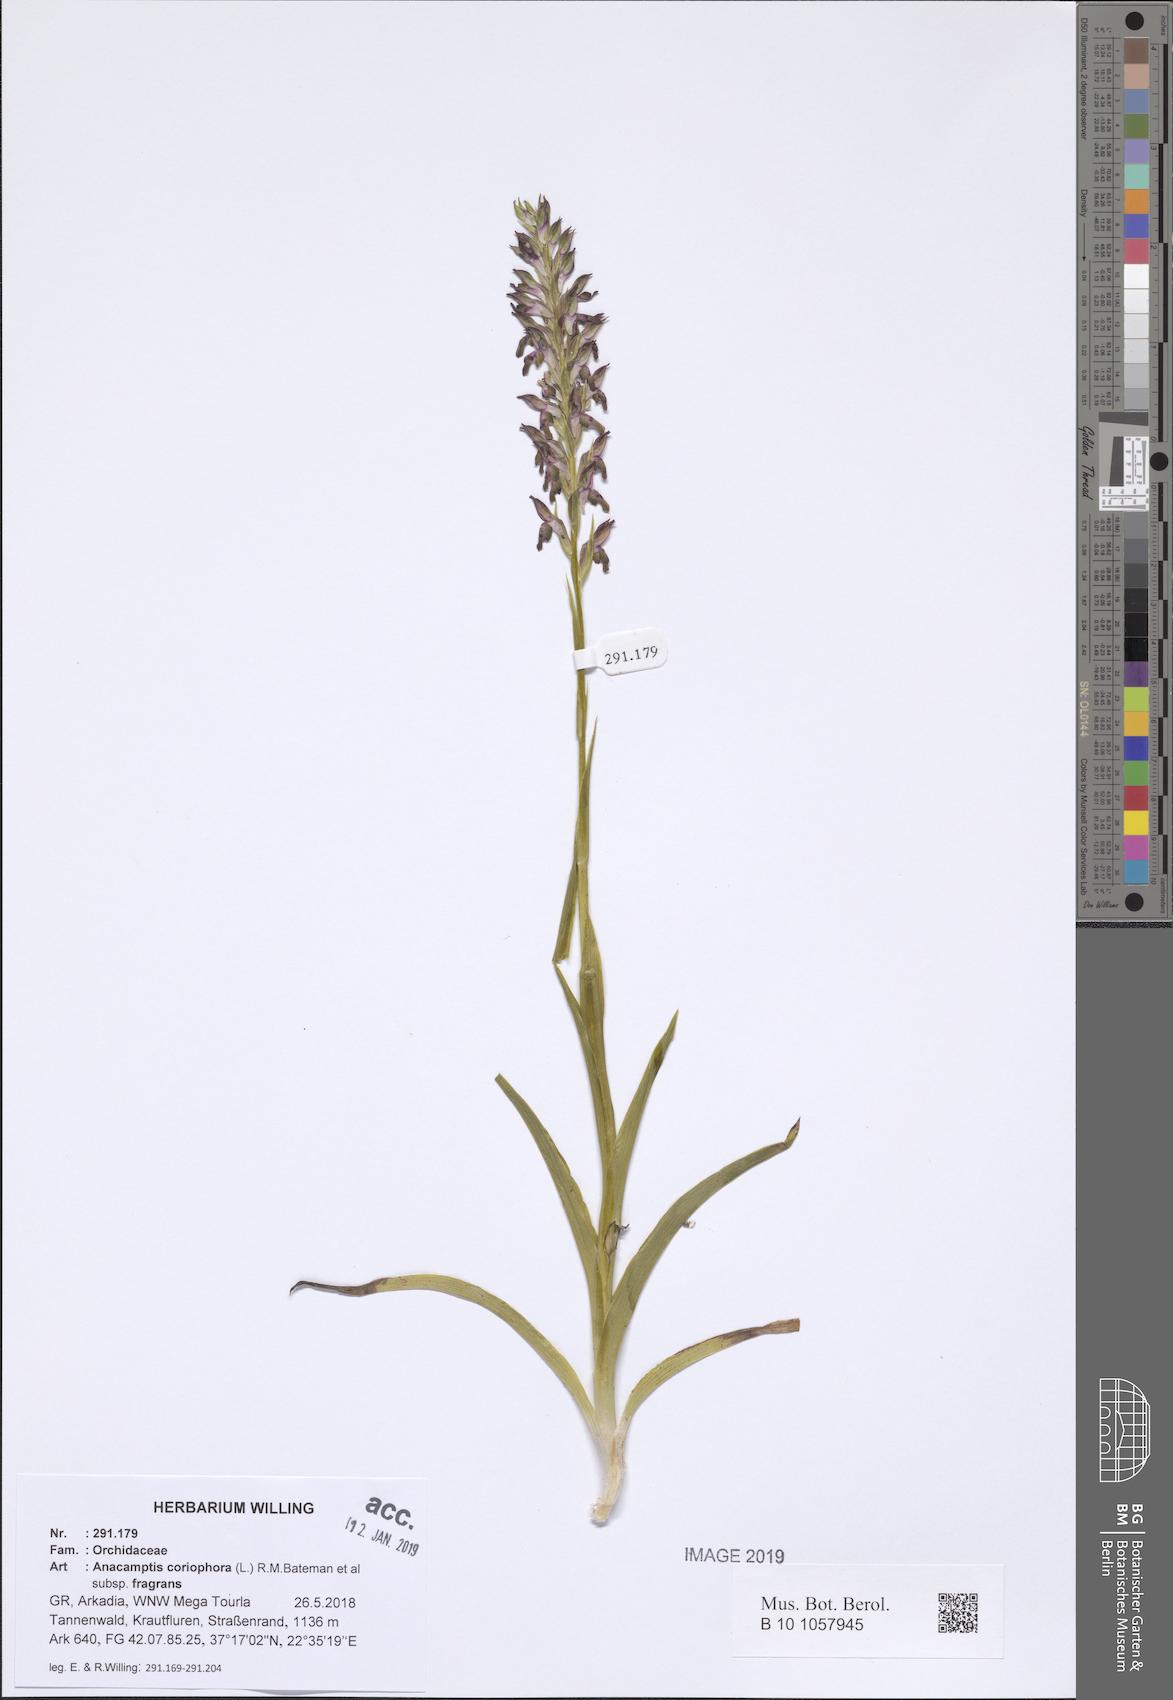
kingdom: Plantae
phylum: Tracheophyta
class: Liliopsida
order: Asparagales
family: Orchidaceae
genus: Anacamptis
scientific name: Anacamptis coriophora
